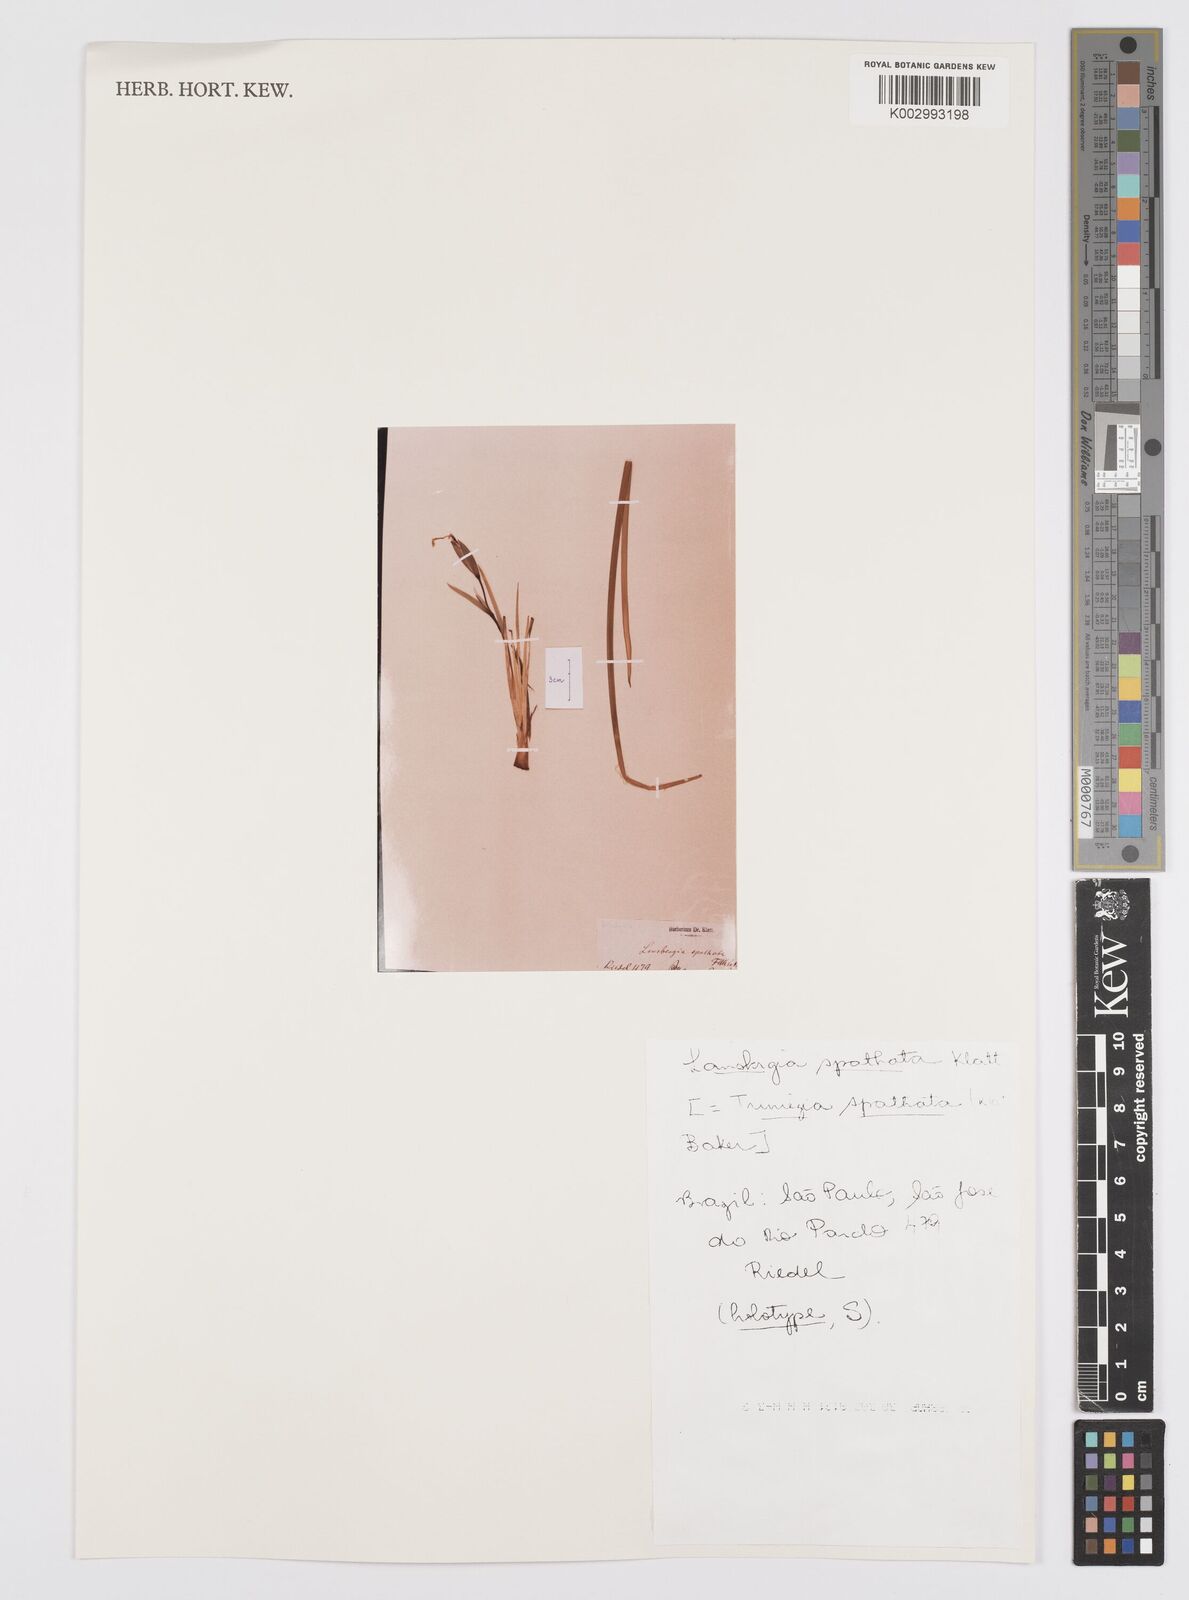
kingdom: Plantae
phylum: Tracheophyta
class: Liliopsida
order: Asparagales
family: Iridaceae
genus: Trimezia
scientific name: Trimezia spathata
